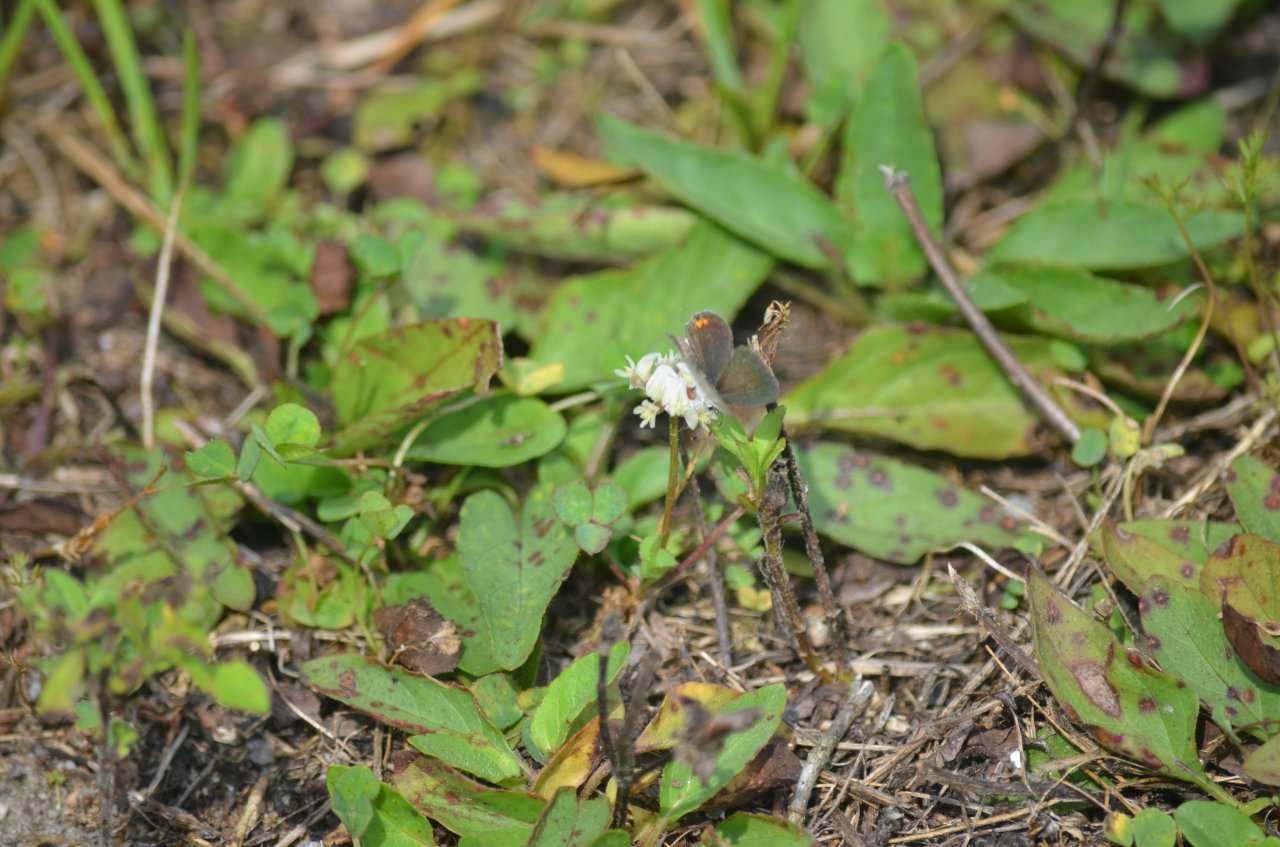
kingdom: Animalia
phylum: Arthropoda
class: Insecta
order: Lepidoptera
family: Lycaenidae
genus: Elkalyce
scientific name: Elkalyce comyntas
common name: Eastern Tailed-Blue
